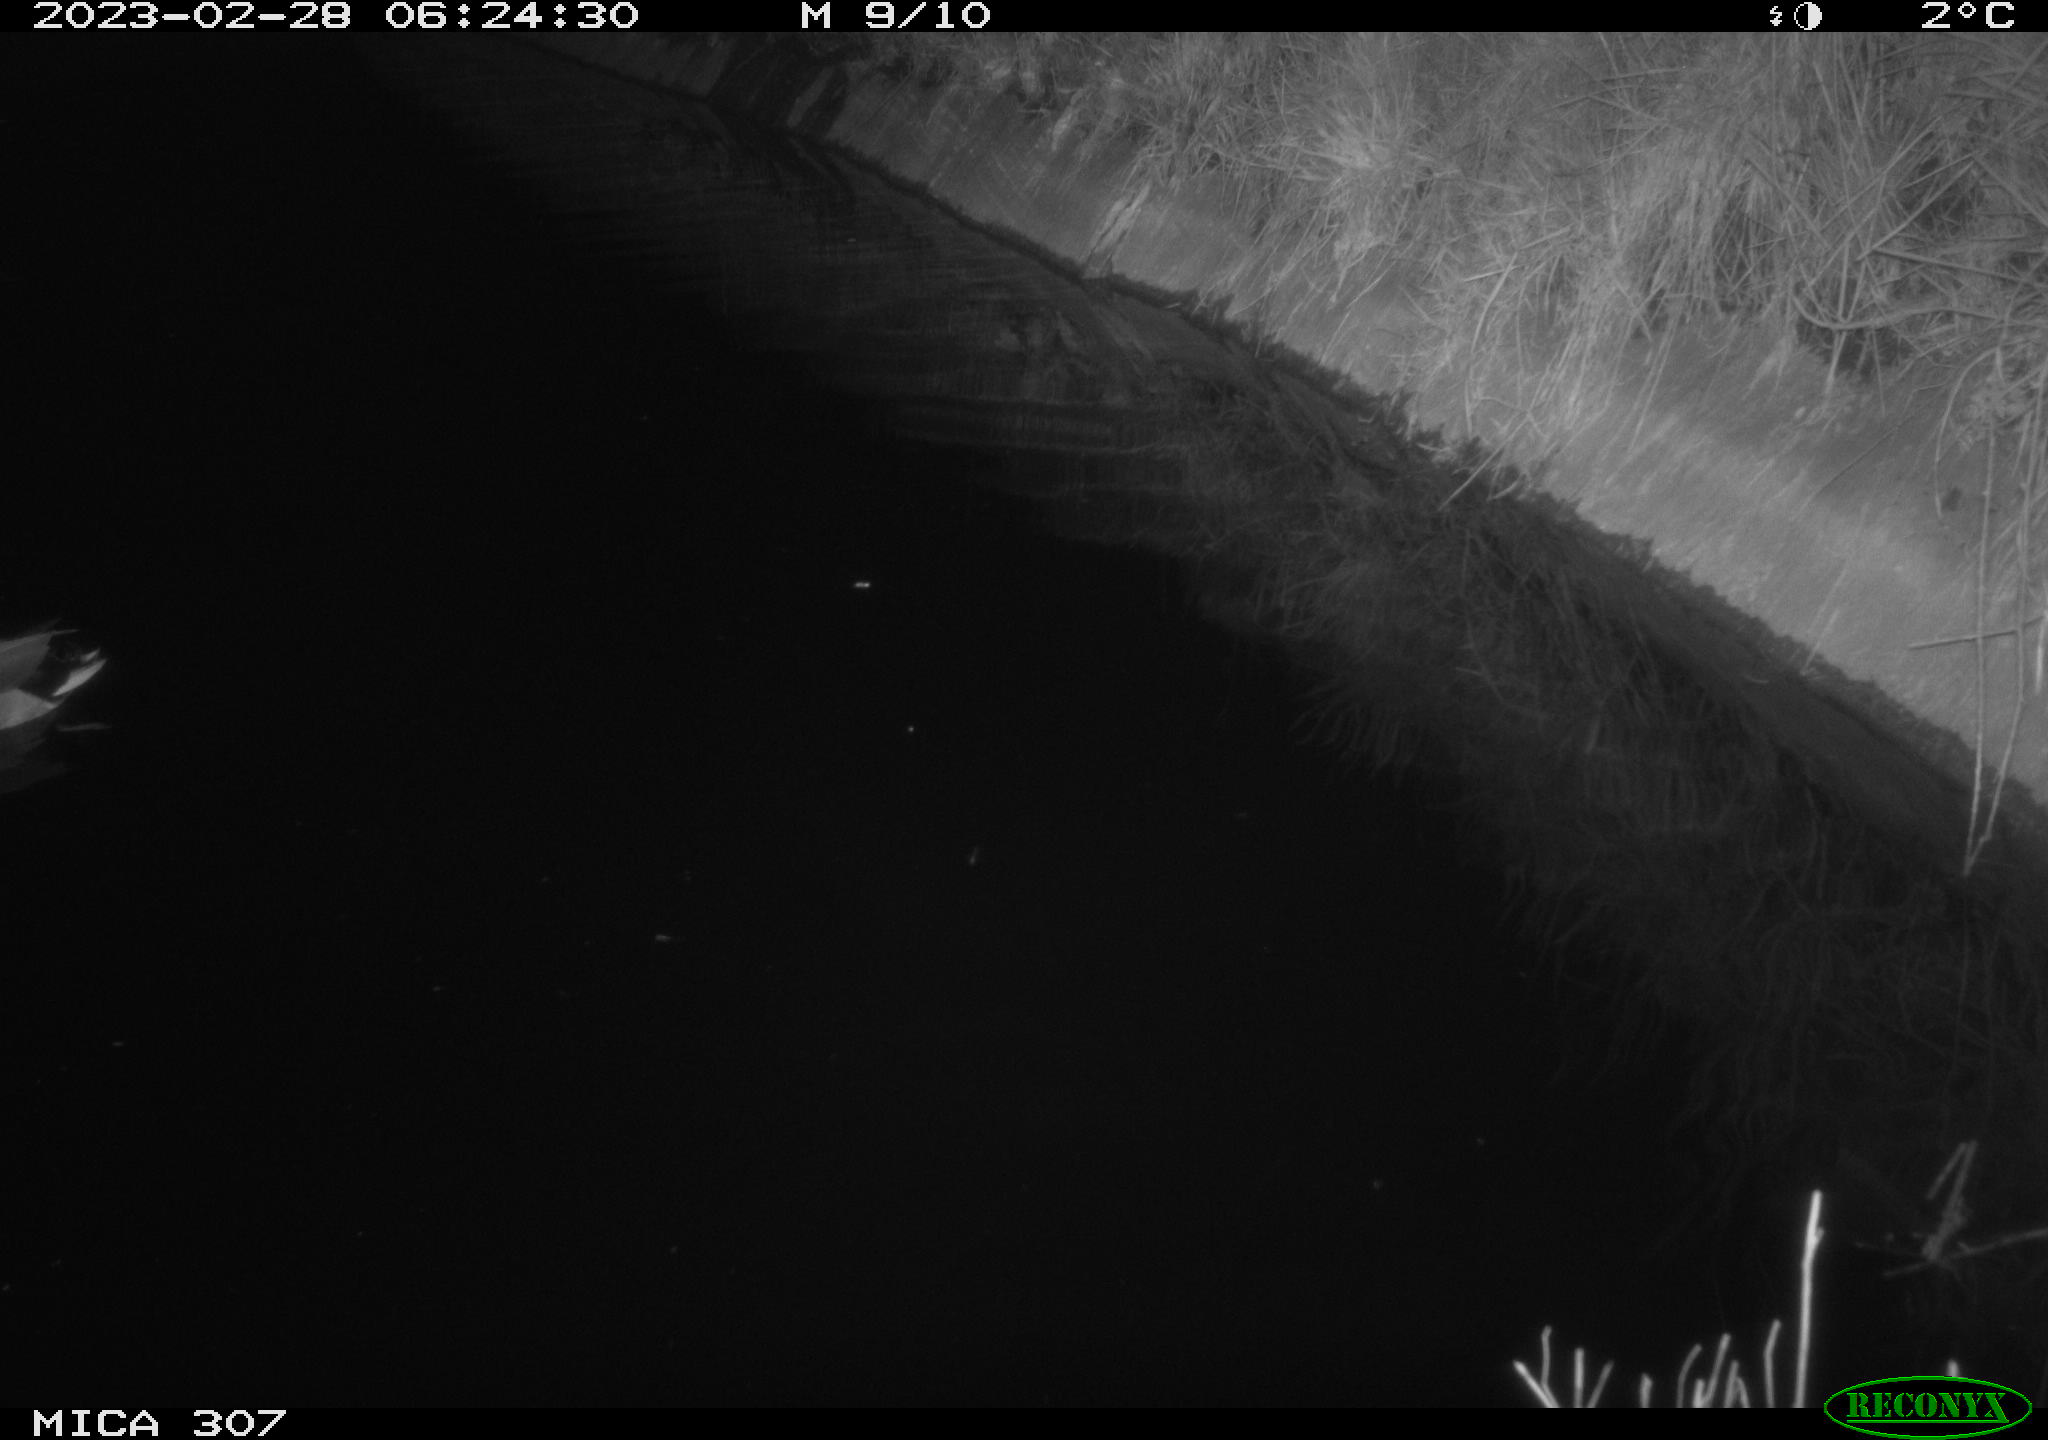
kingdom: Animalia
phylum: Chordata
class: Aves
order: Anseriformes
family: Anatidae
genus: Anas
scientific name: Anas
